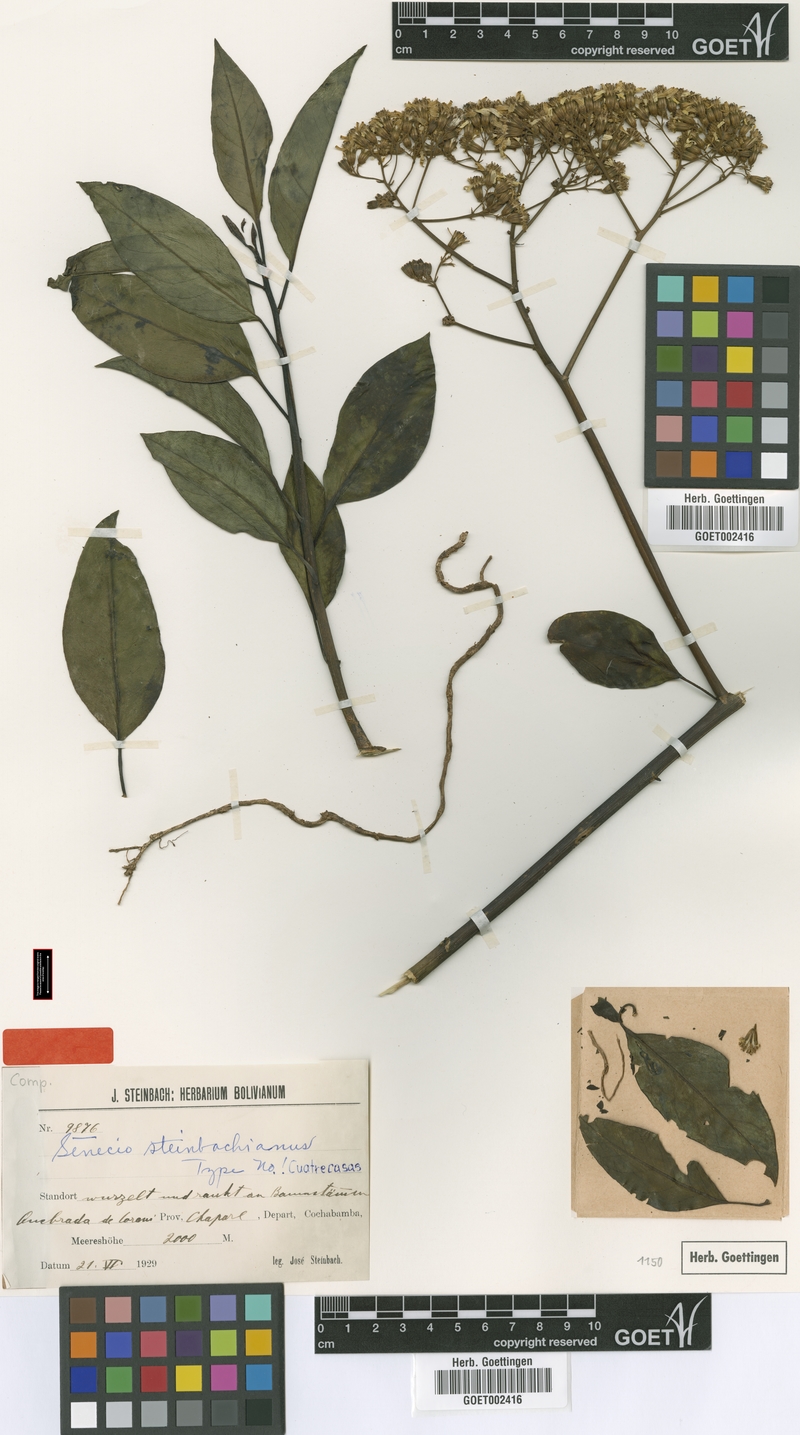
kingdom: Plantae
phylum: Tracheophyta
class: Magnoliopsida
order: Asterales
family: Asteraceae
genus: Pentacalia
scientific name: Pentacalia epiphytica
